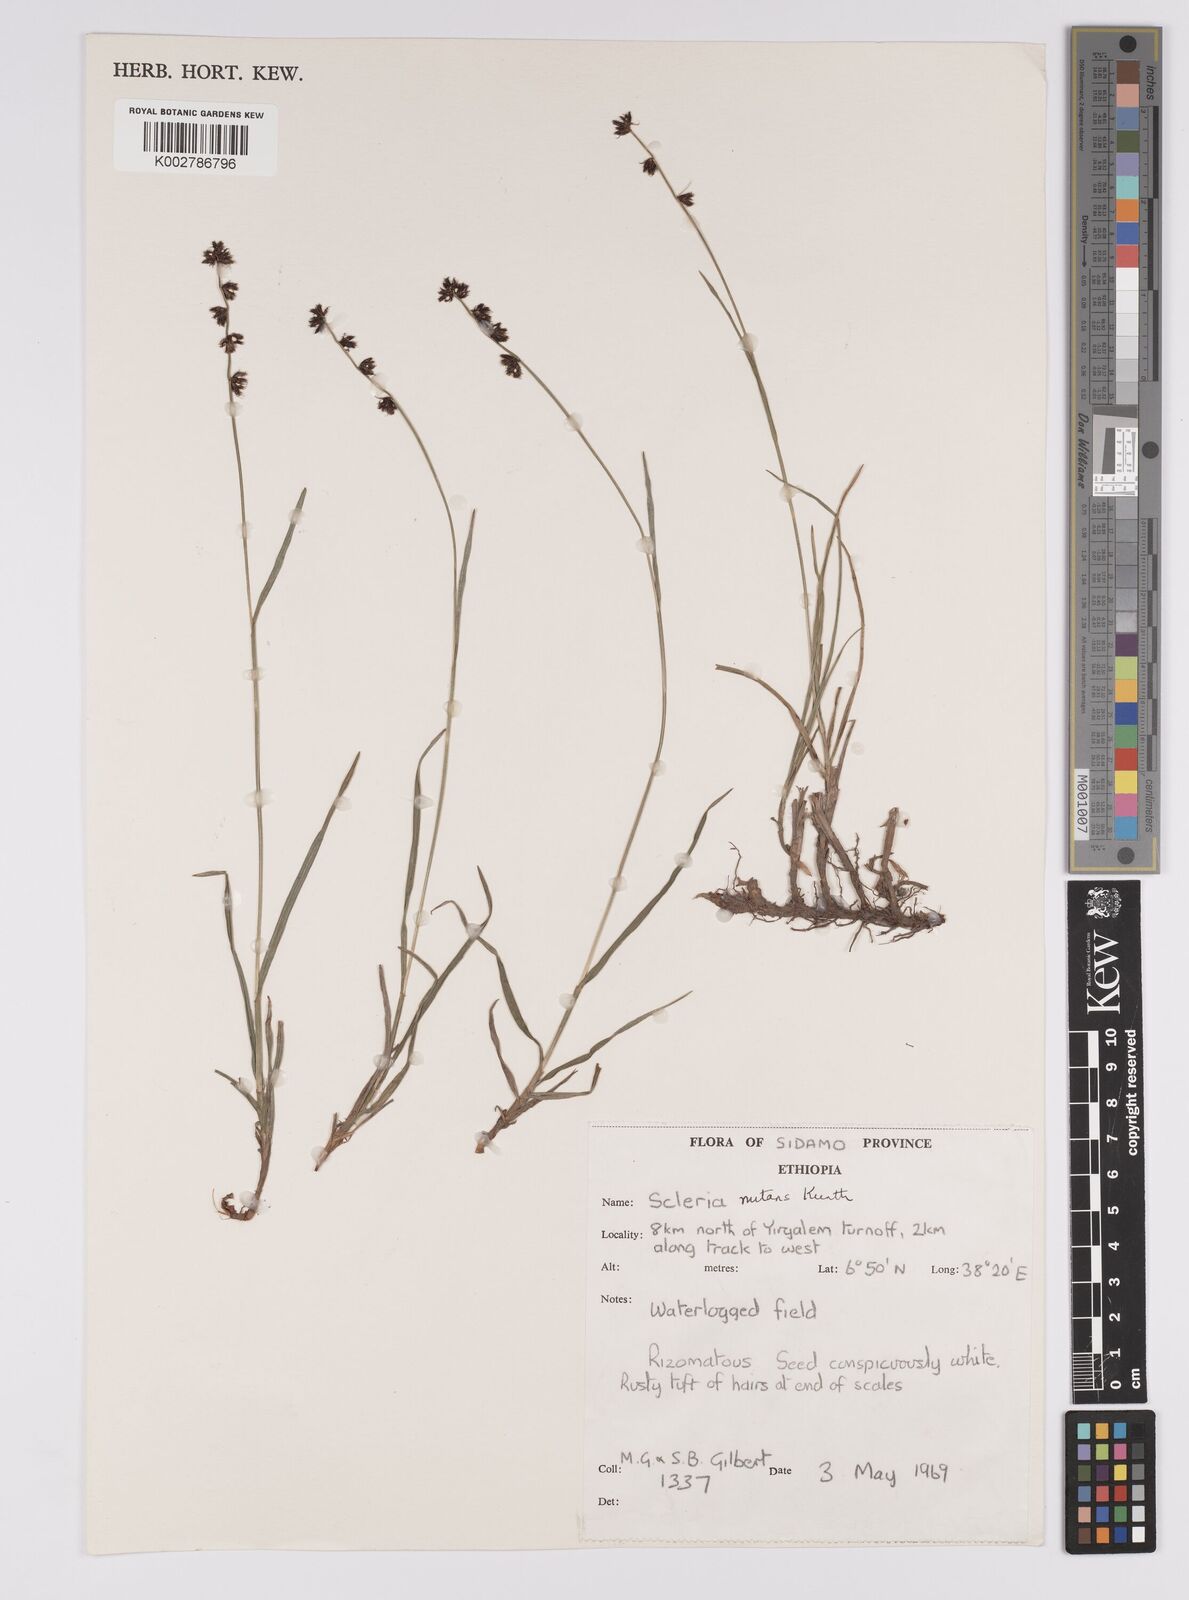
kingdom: Plantae
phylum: Tracheophyta
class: Liliopsida
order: Poales
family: Cyperaceae
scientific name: Cyperaceae
